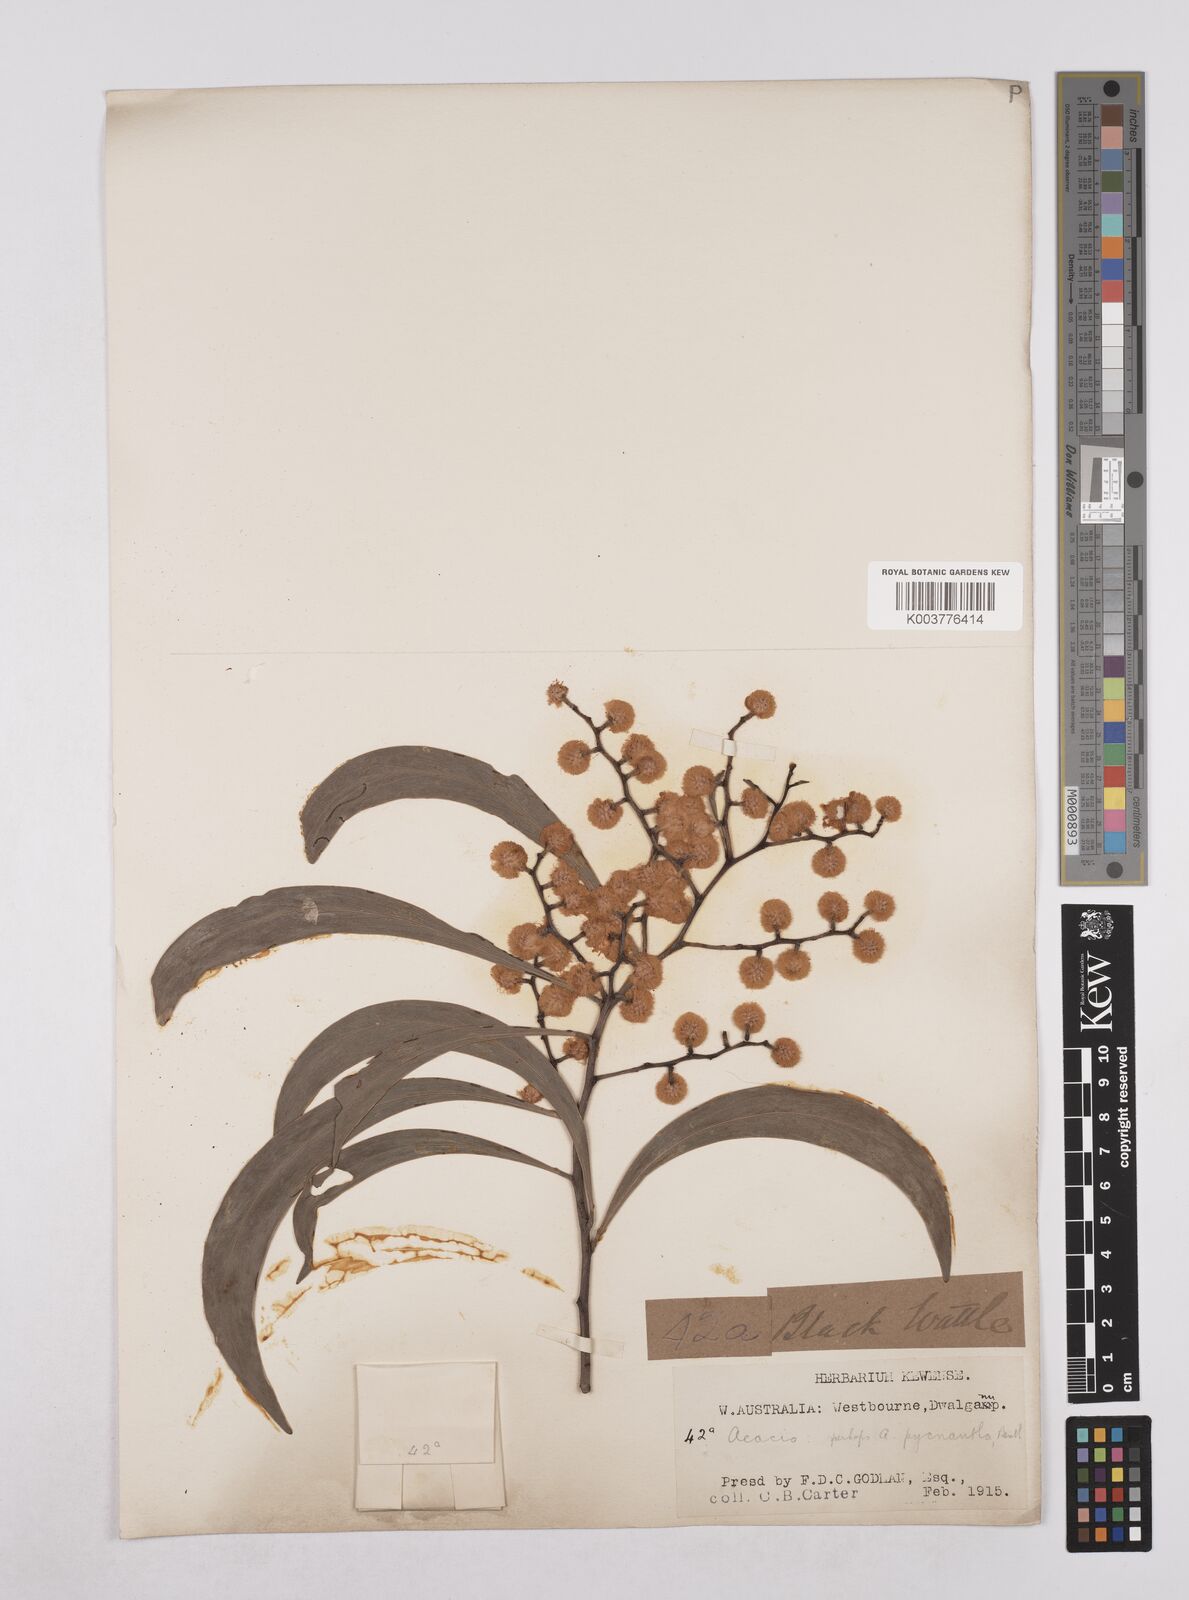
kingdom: Plantae
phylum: Tracheophyta
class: Magnoliopsida
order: Fabales
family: Fabaceae
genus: Acacia
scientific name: Acacia pycnantha
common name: Golden wattle
